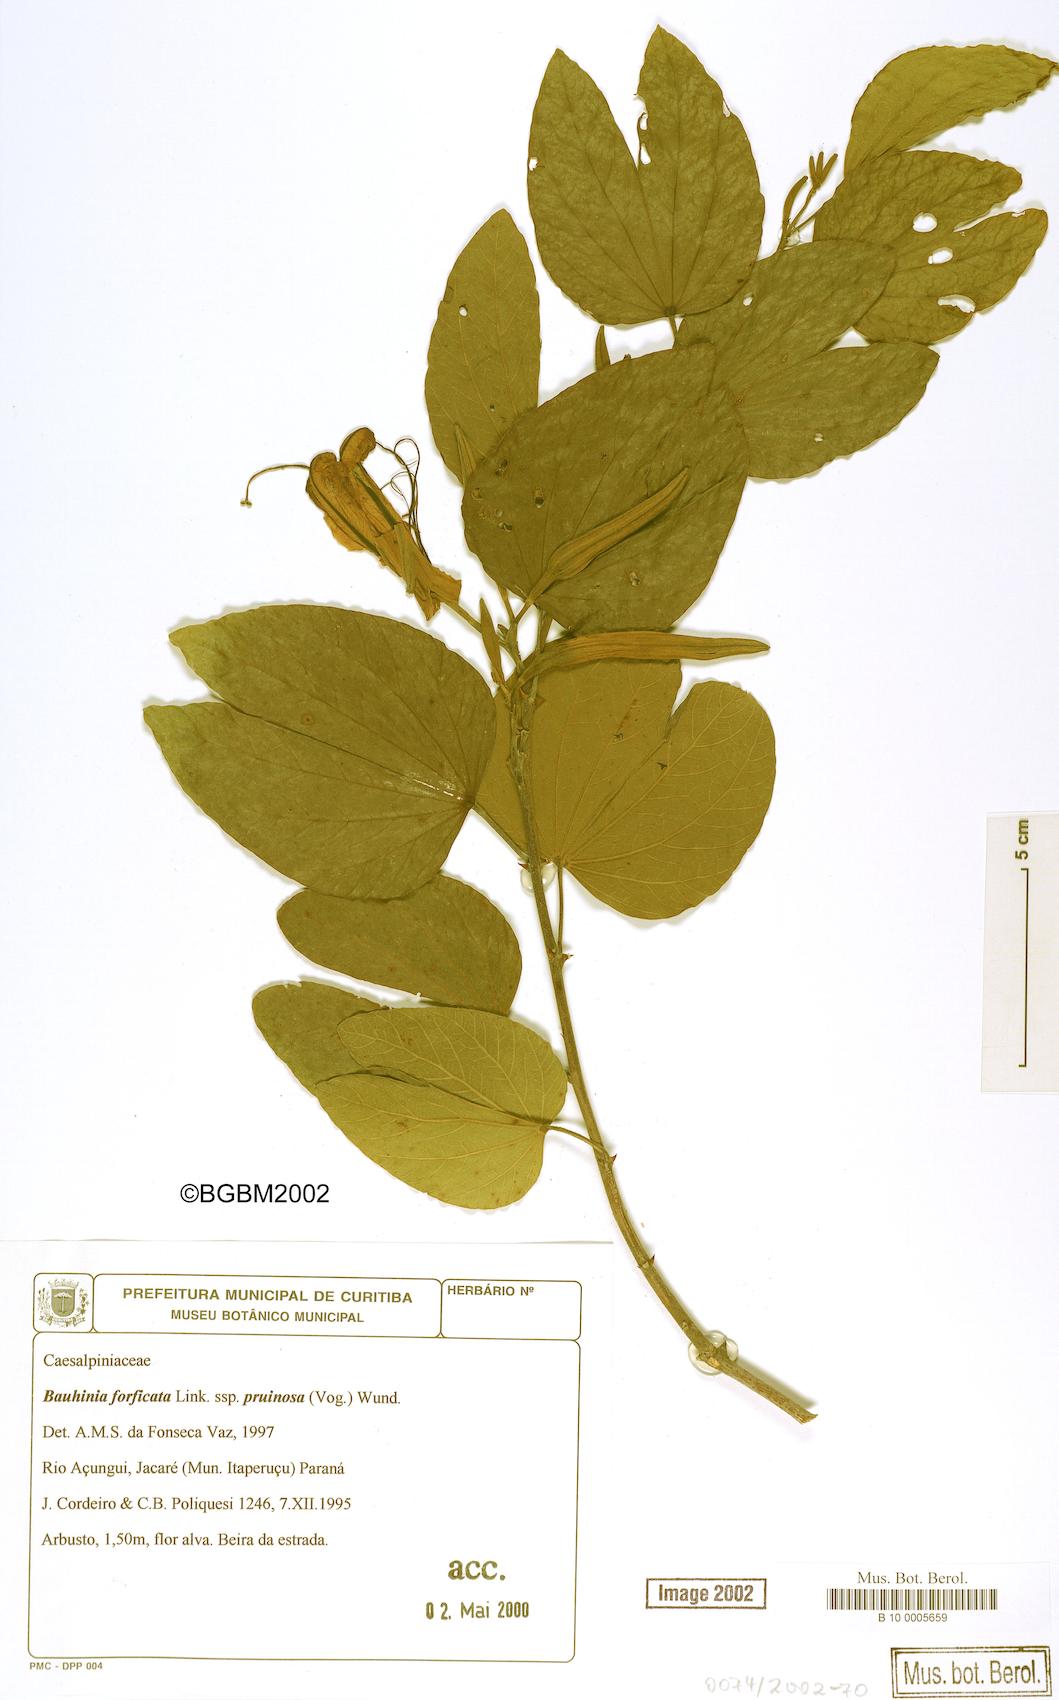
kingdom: Plantae
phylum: Tracheophyta
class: Magnoliopsida
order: Fabales
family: Fabaceae
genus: Bauhinia
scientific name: Bauhinia forficata
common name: Orchid tree
